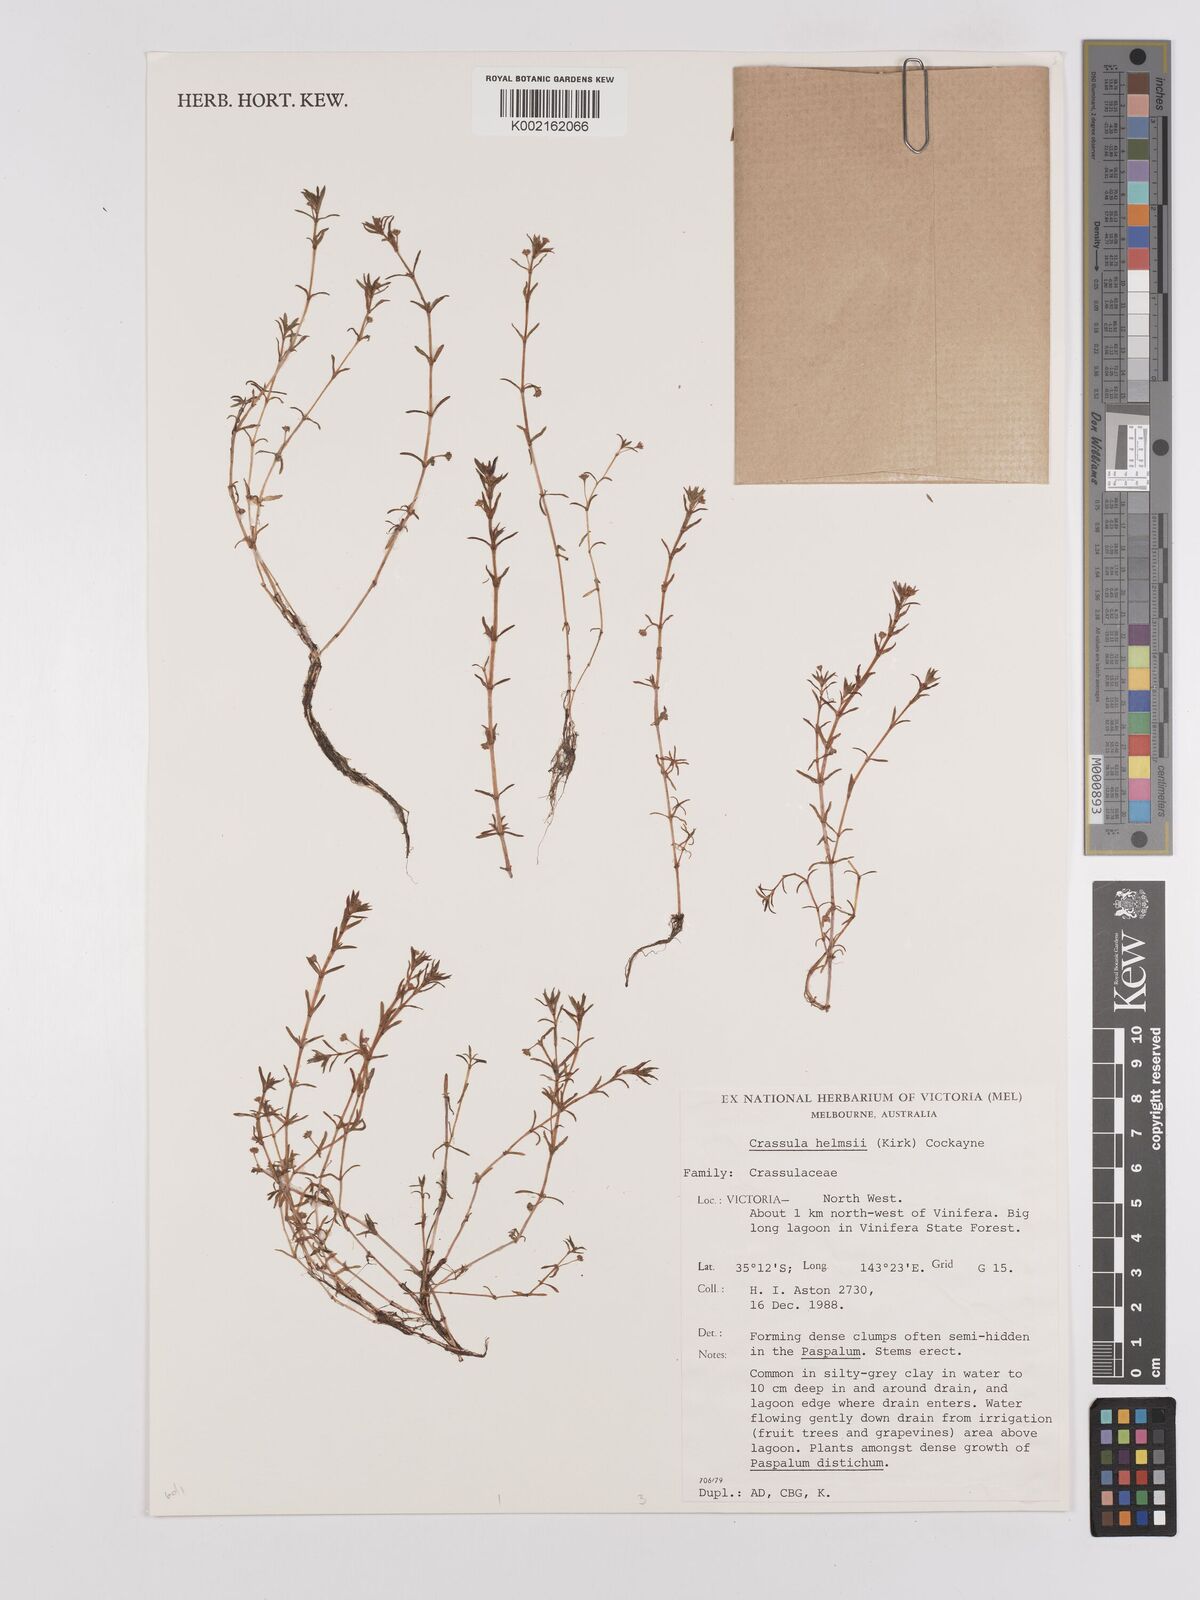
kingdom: Plantae
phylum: Tracheophyta
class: Magnoliopsida
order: Saxifragales
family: Crassulaceae
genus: Crassula
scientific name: Crassula helmsii
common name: New zealand pigmyweed
